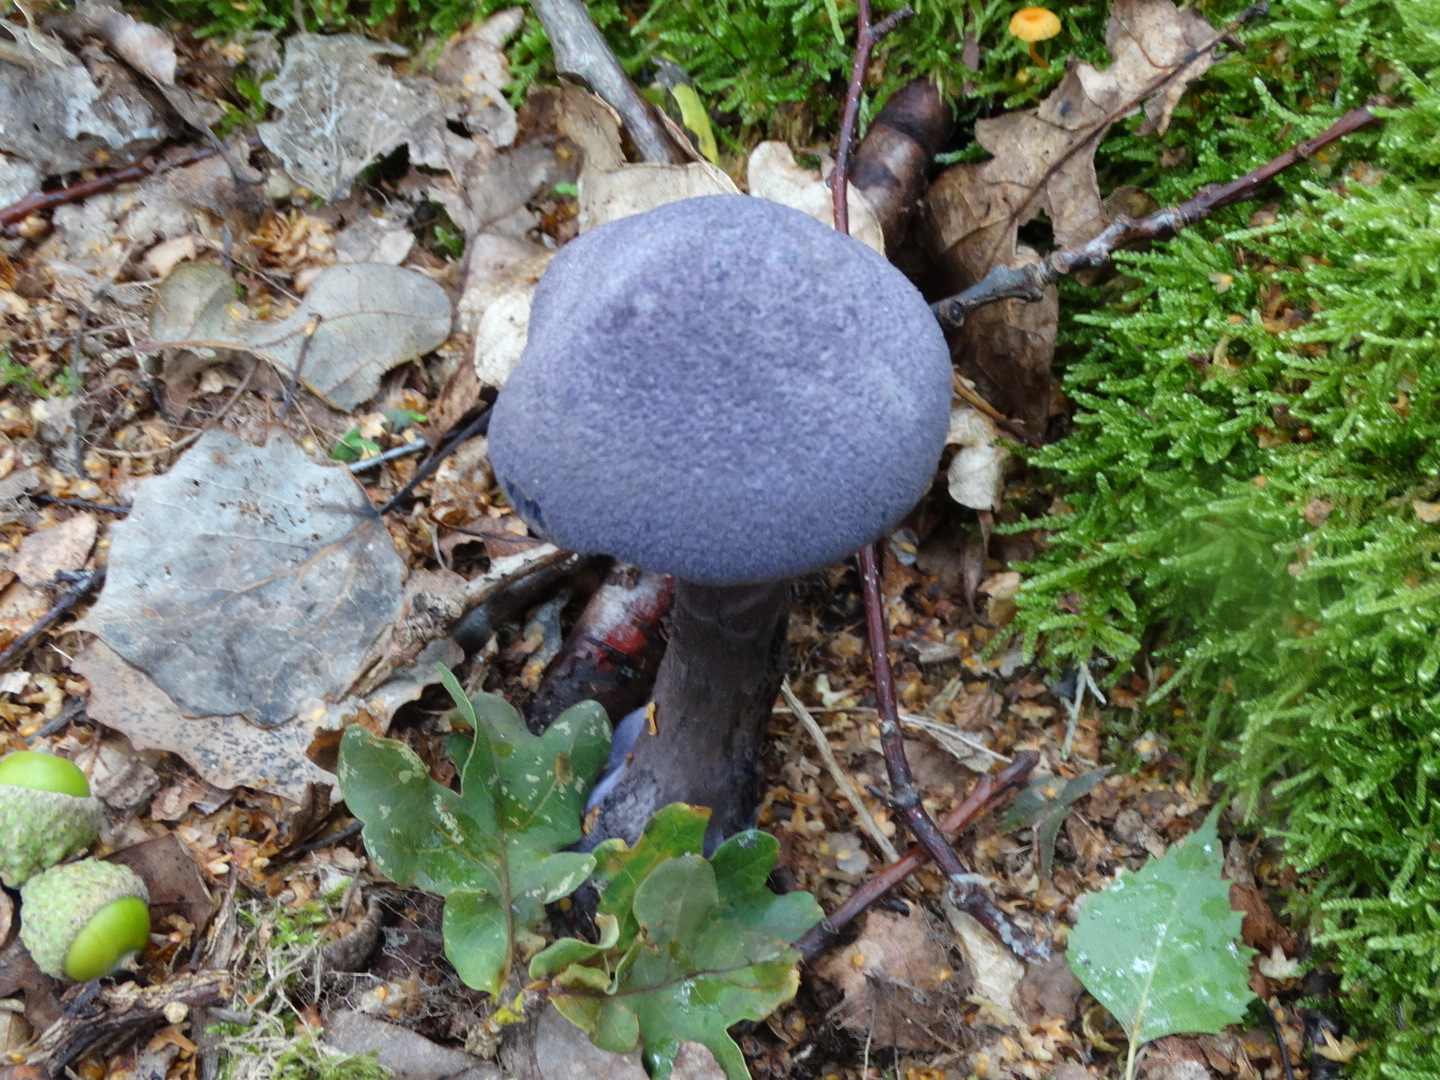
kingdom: Fungi
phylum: Basidiomycota
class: Agaricomycetes
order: Agaricales
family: Cortinariaceae
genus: Cortinarius
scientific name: Cortinarius violaceus
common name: mørkviolet slørhat
